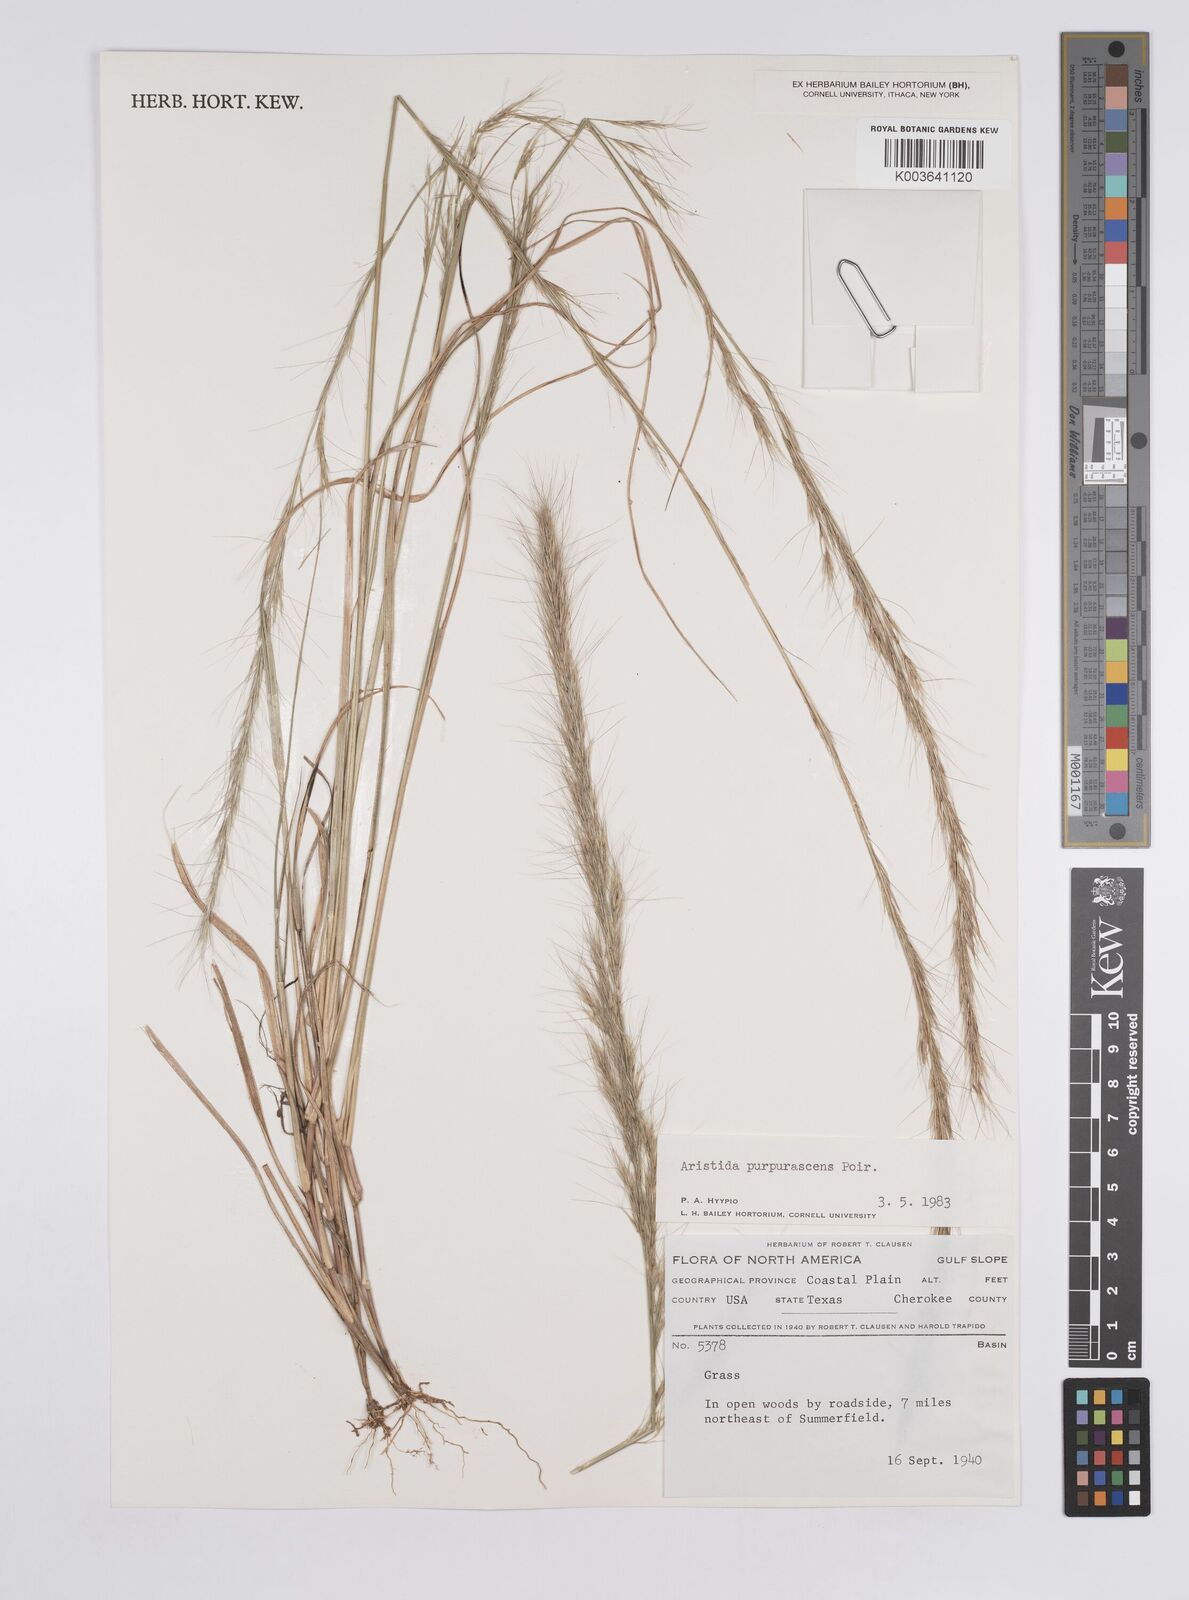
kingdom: Plantae
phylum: Tracheophyta
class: Liliopsida
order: Poales
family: Poaceae
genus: Aristida
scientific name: Aristida purpurascens
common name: Arrow-feather
